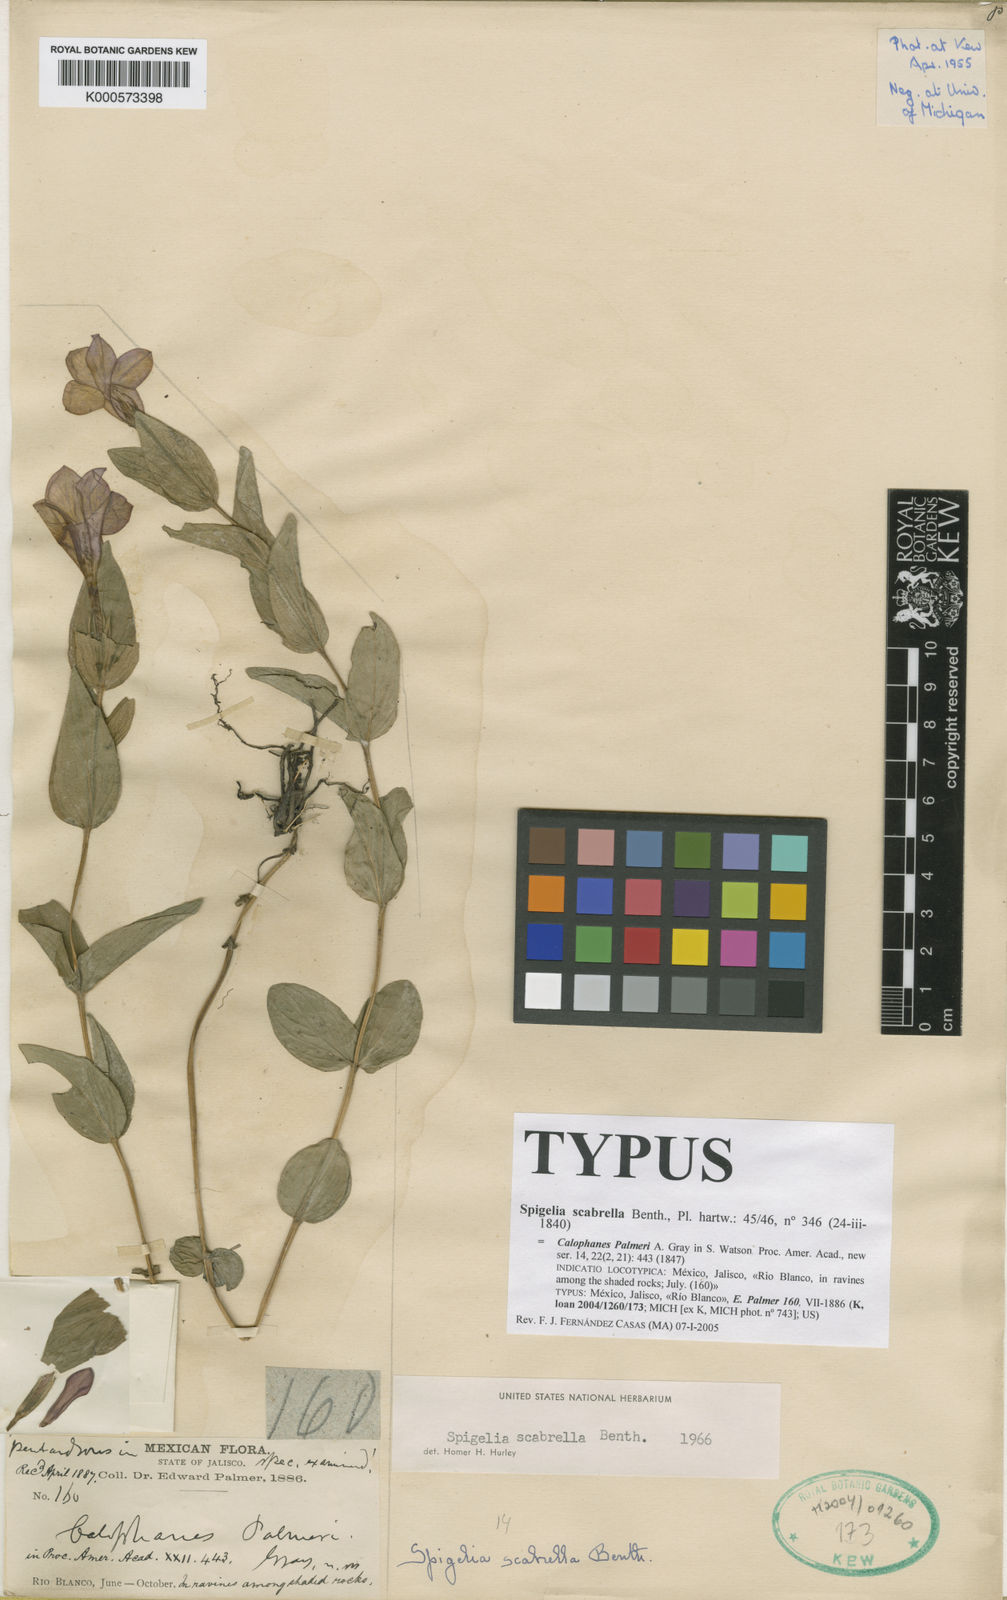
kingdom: Plantae
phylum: Tracheophyta
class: Magnoliopsida
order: Gentianales
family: Loganiaceae
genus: Spigelia
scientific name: Spigelia scabrella
